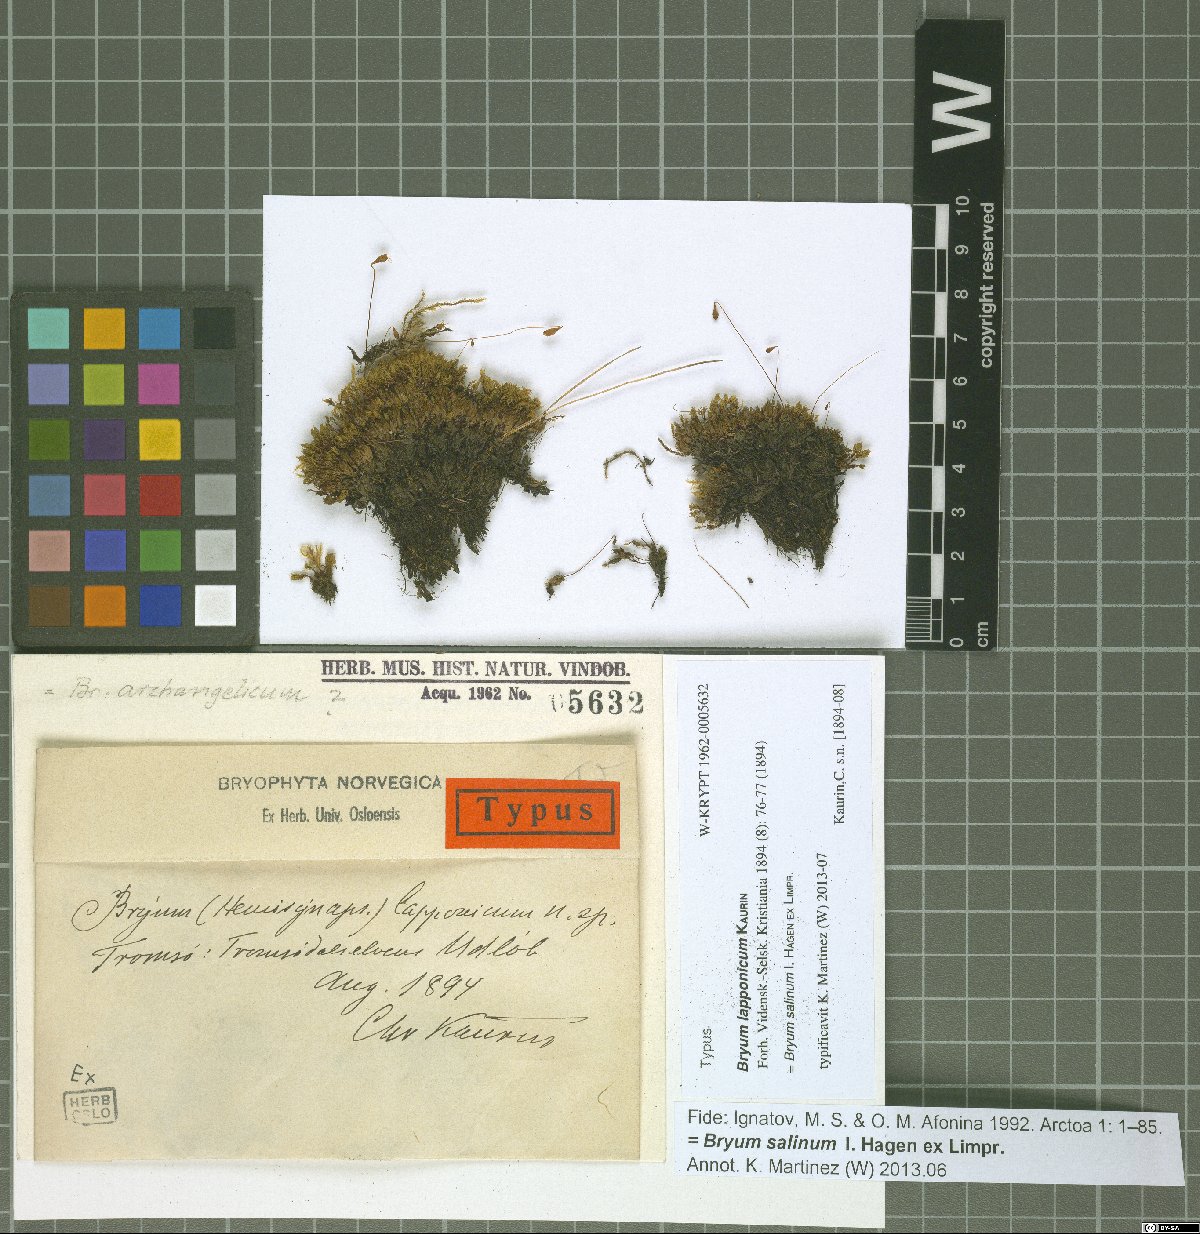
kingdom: Plantae
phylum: Bryophyta
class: Bryopsida
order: Bryales
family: Bryaceae
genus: Ptychostomum
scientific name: Ptychostomum salinum
